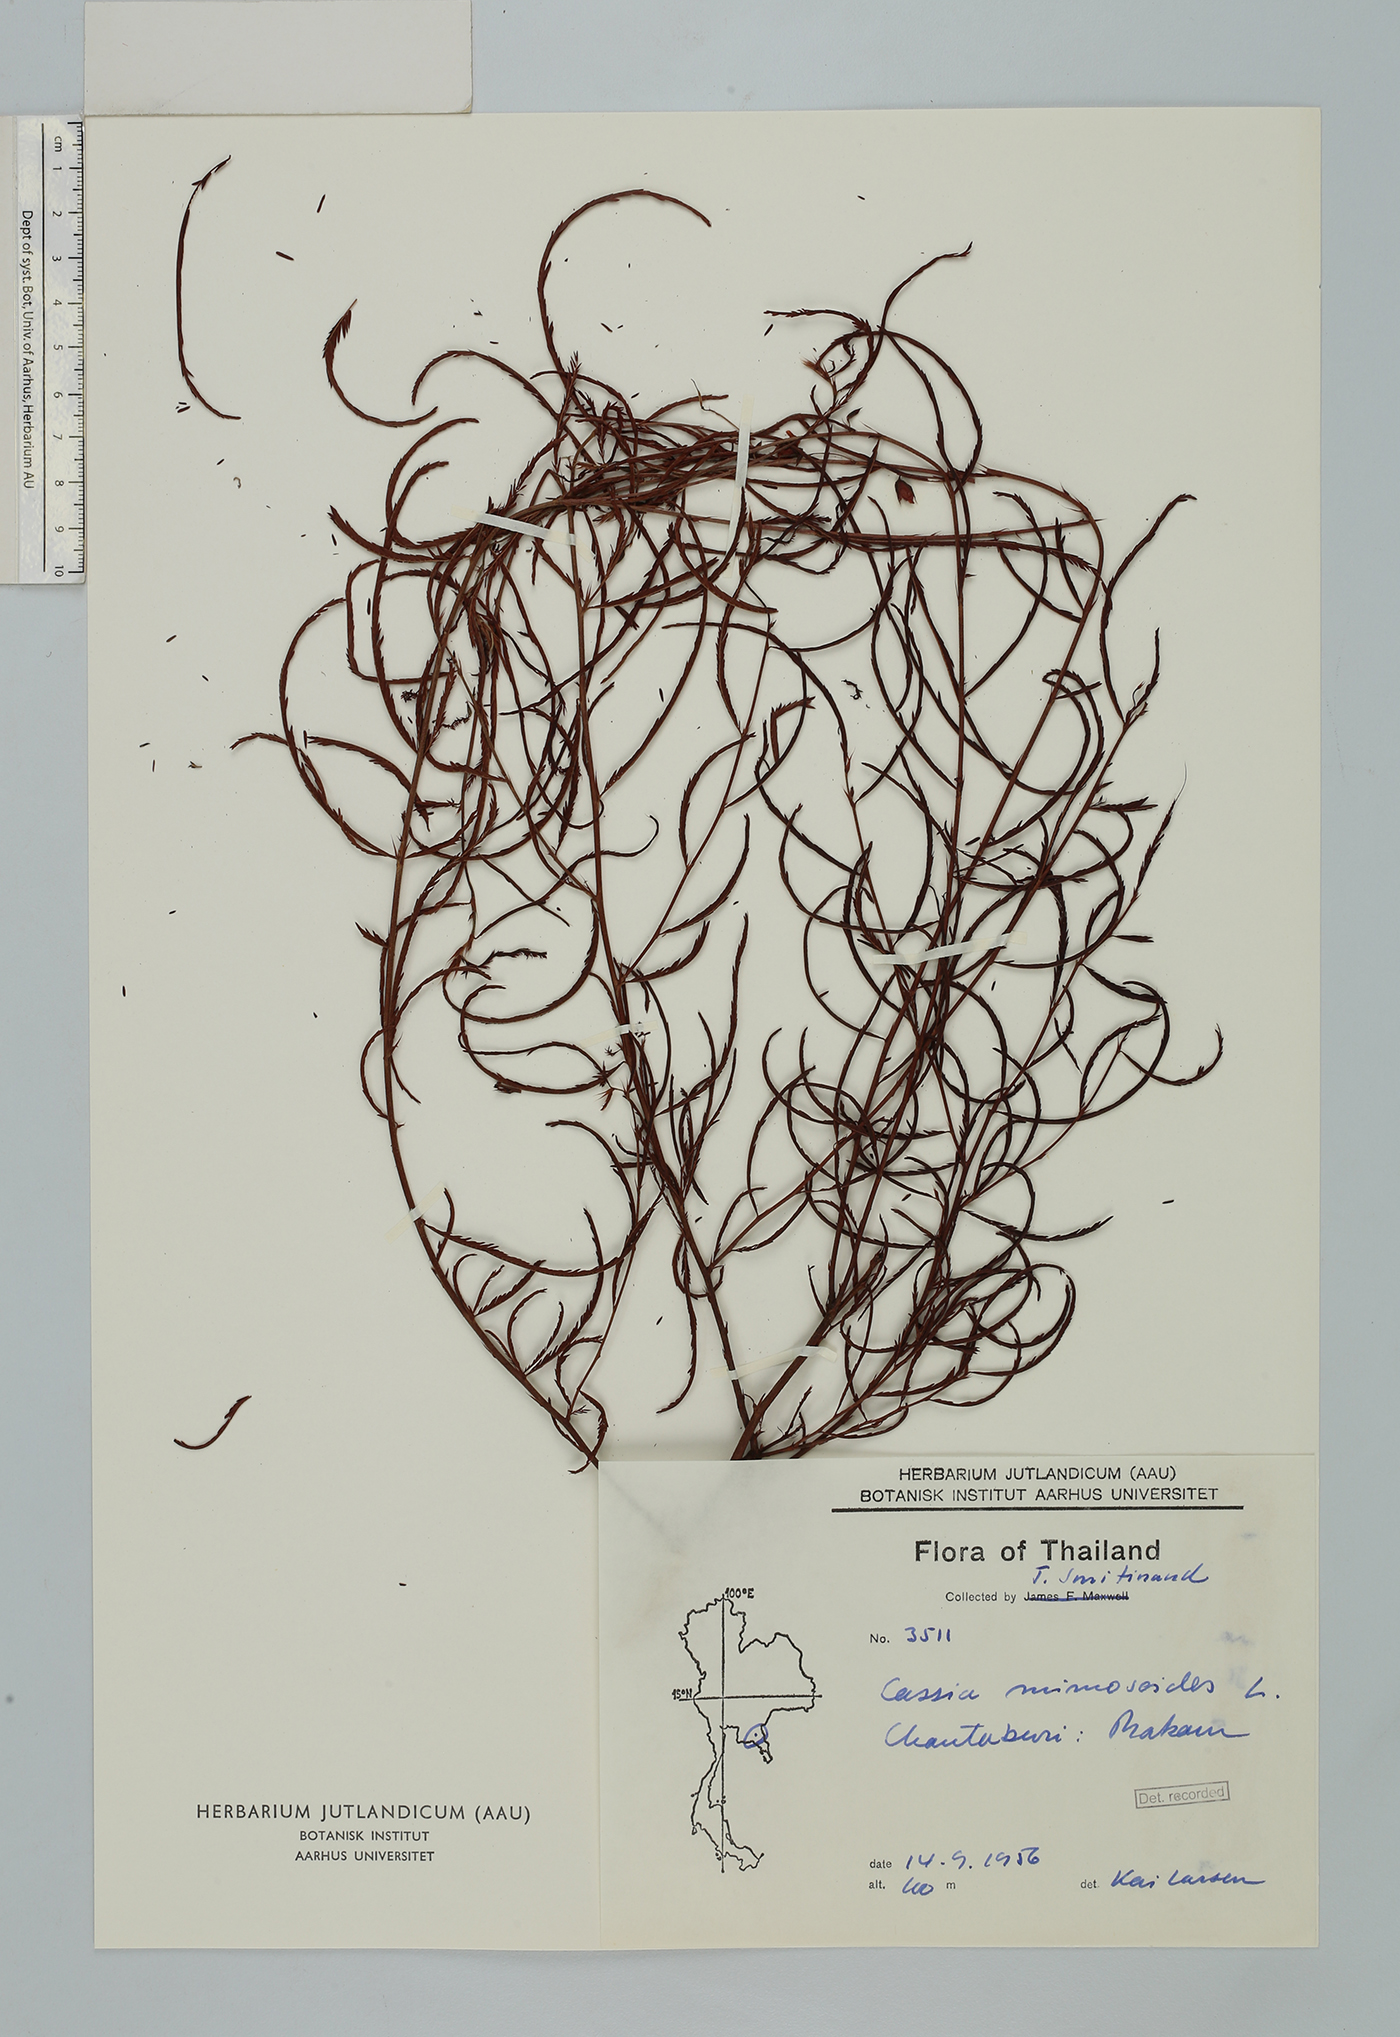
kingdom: Plantae
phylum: Tracheophyta
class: Magnoliopsida
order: Fabales
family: Fabaceae
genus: Chamaecrista
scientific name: Chamaecrista mimosoides
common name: Fish-bone cassia
